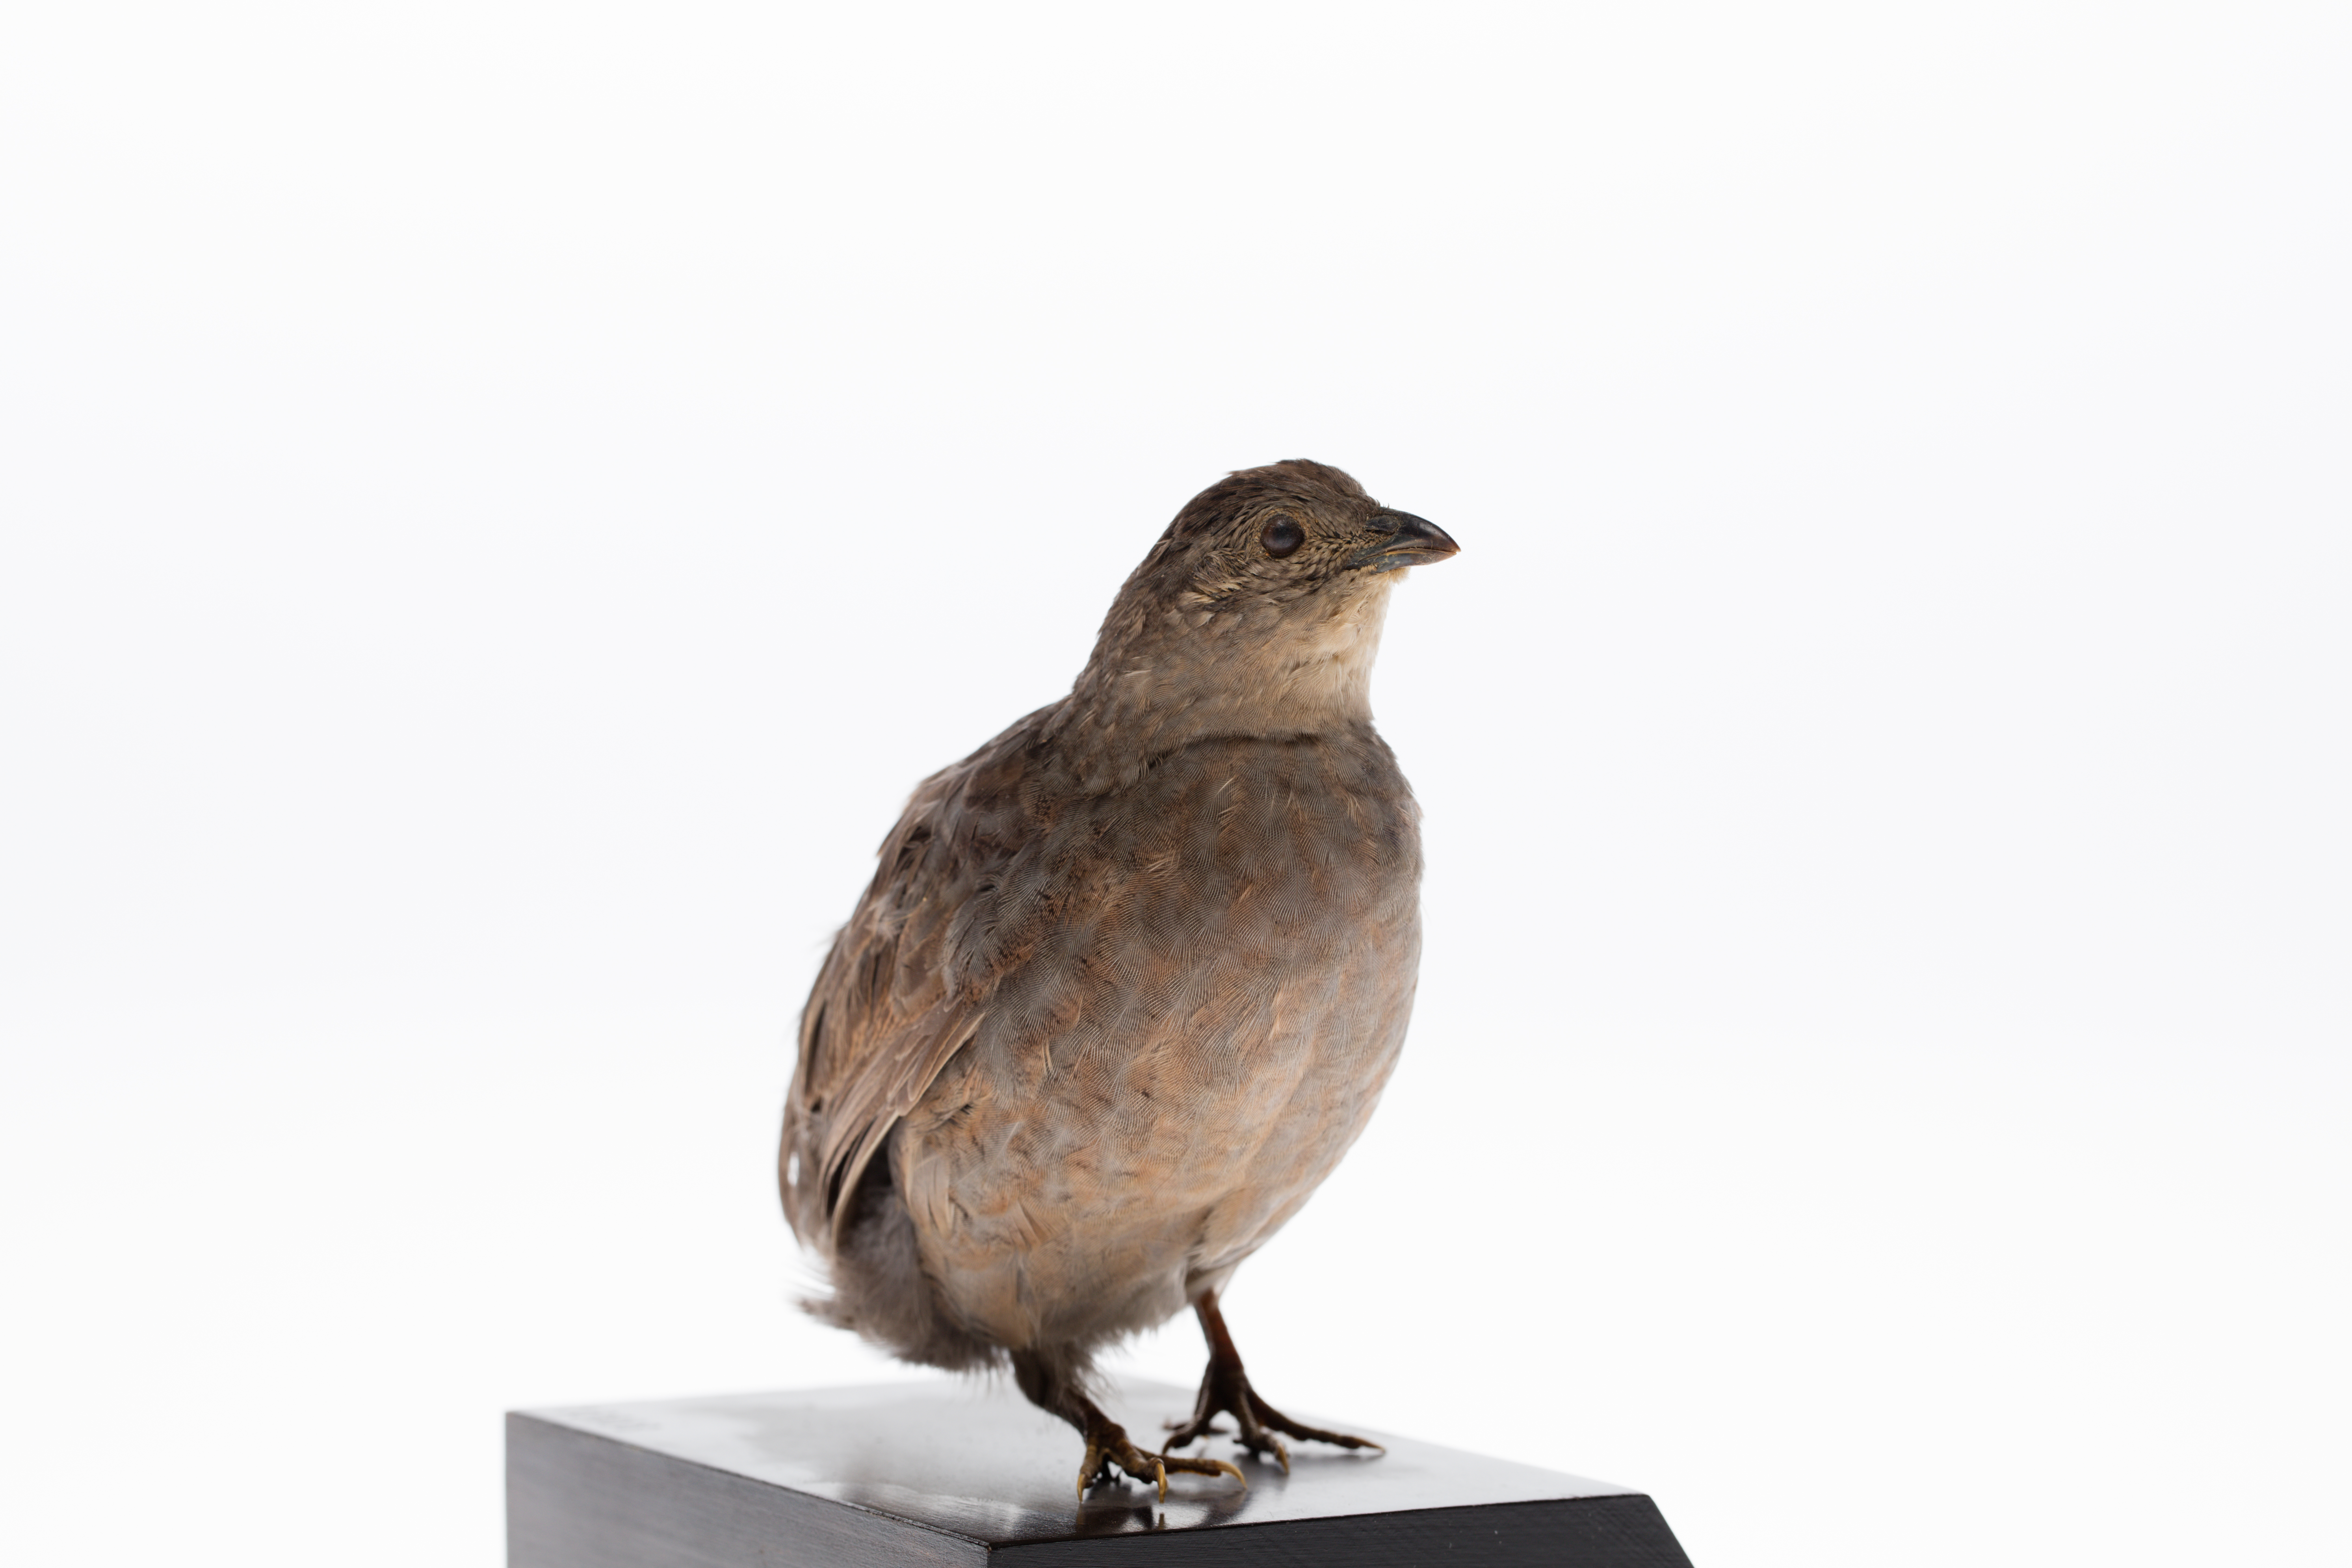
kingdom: Animalia
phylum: Chordata
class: Aves
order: Galliformes
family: Phasianidae
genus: Synoicus
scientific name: Synoicus ypsilophorus
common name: Brown quail
